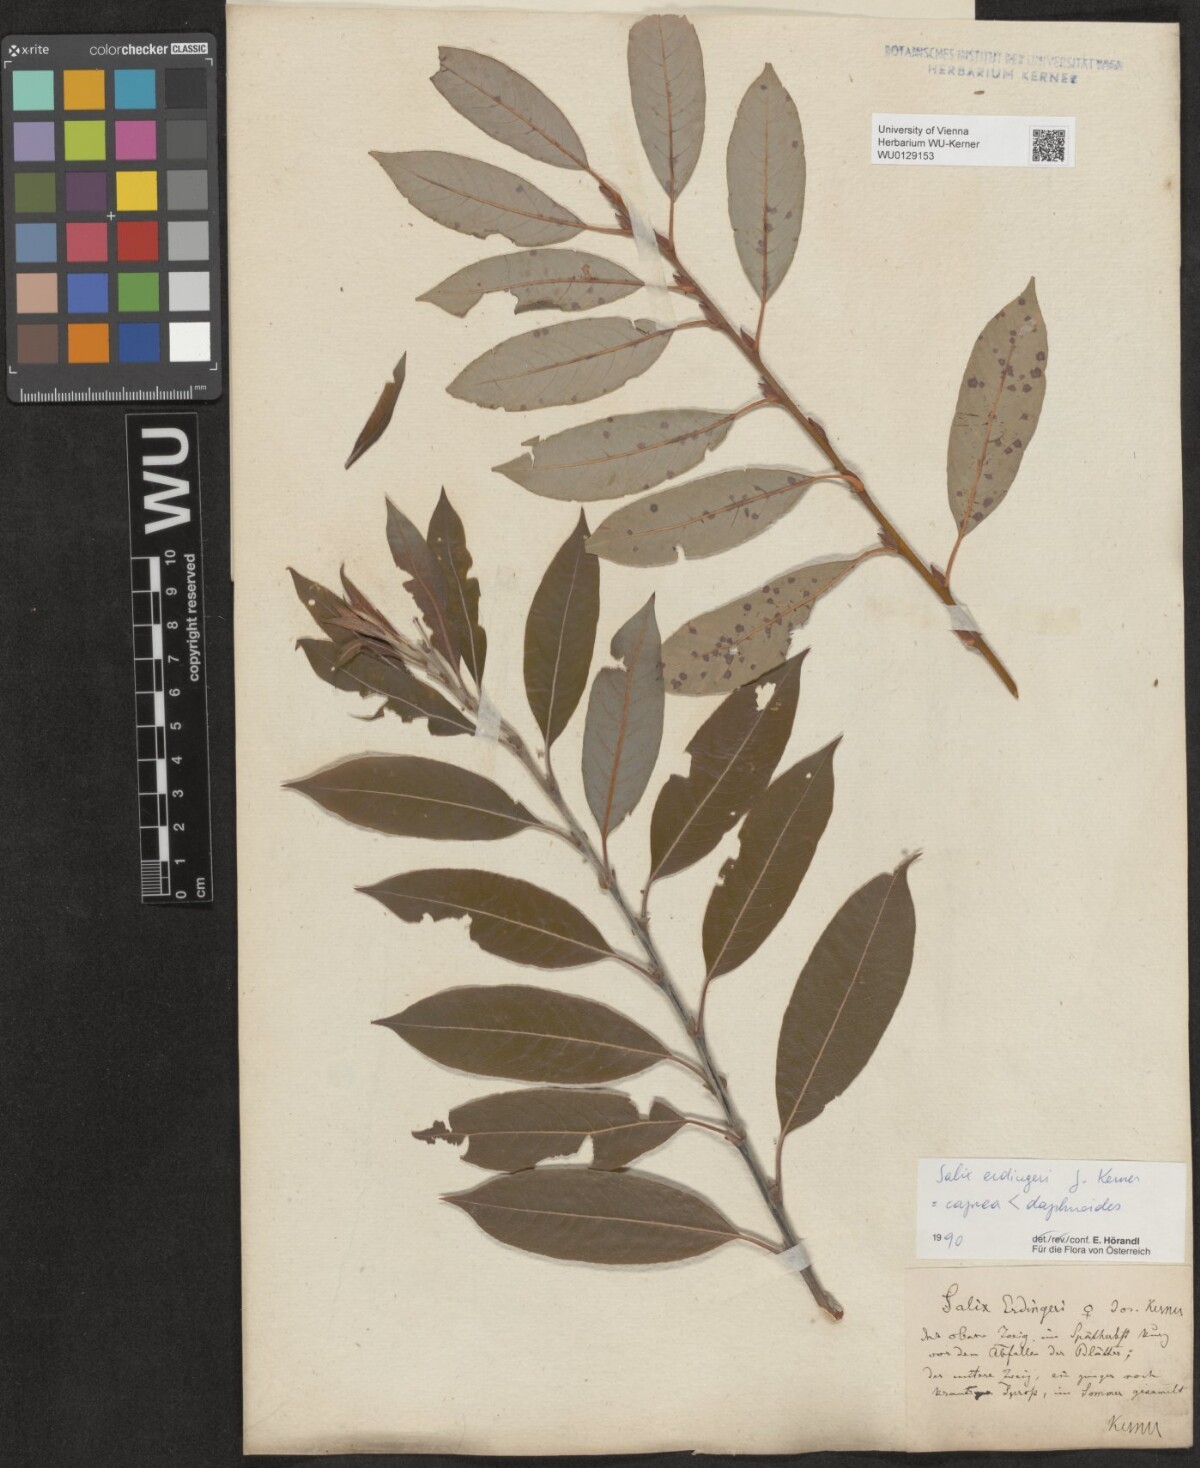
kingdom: Plantae
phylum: Tracheophyta
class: Magnoliopsida
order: Malpighiales
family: Salicaceae
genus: Salix
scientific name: Salix erdingeri
